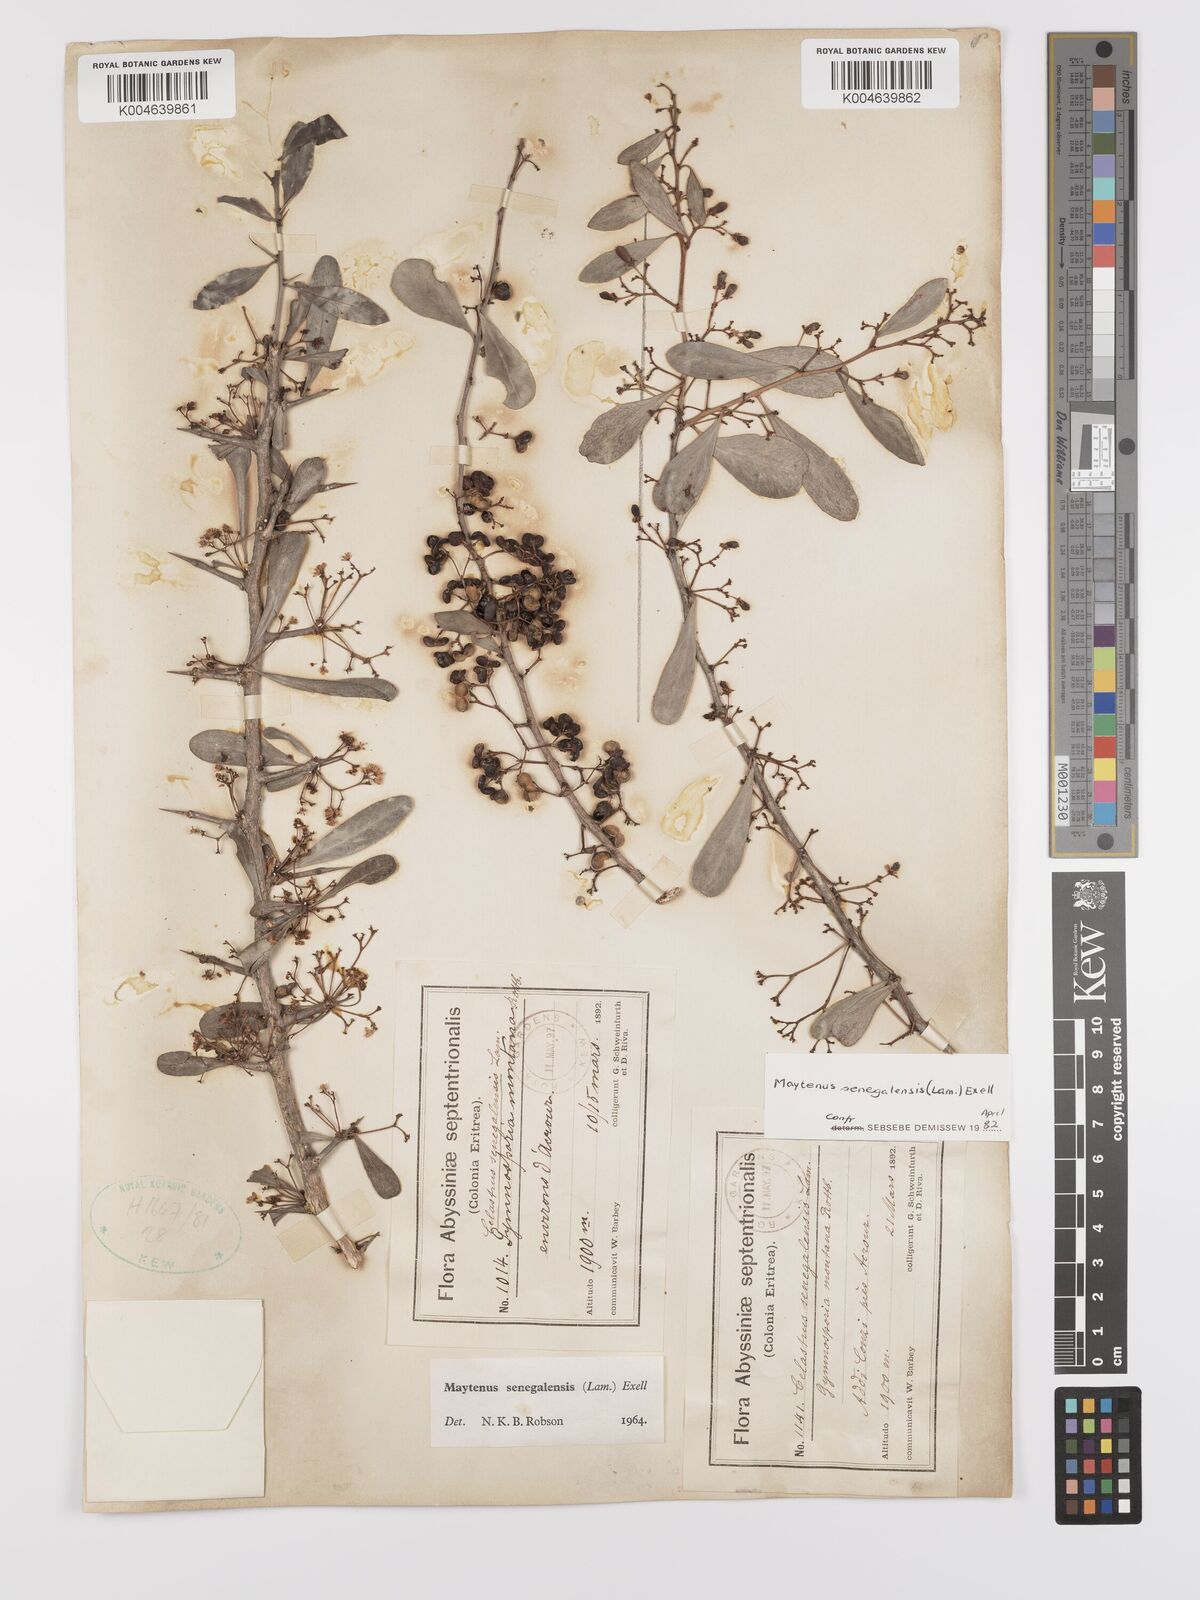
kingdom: Plantae
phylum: Tracheophyta
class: Magnoliopsida
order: Celastrales
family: Celastraceae
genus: Gymnosporia
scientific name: Gymnosporia senegalensis
